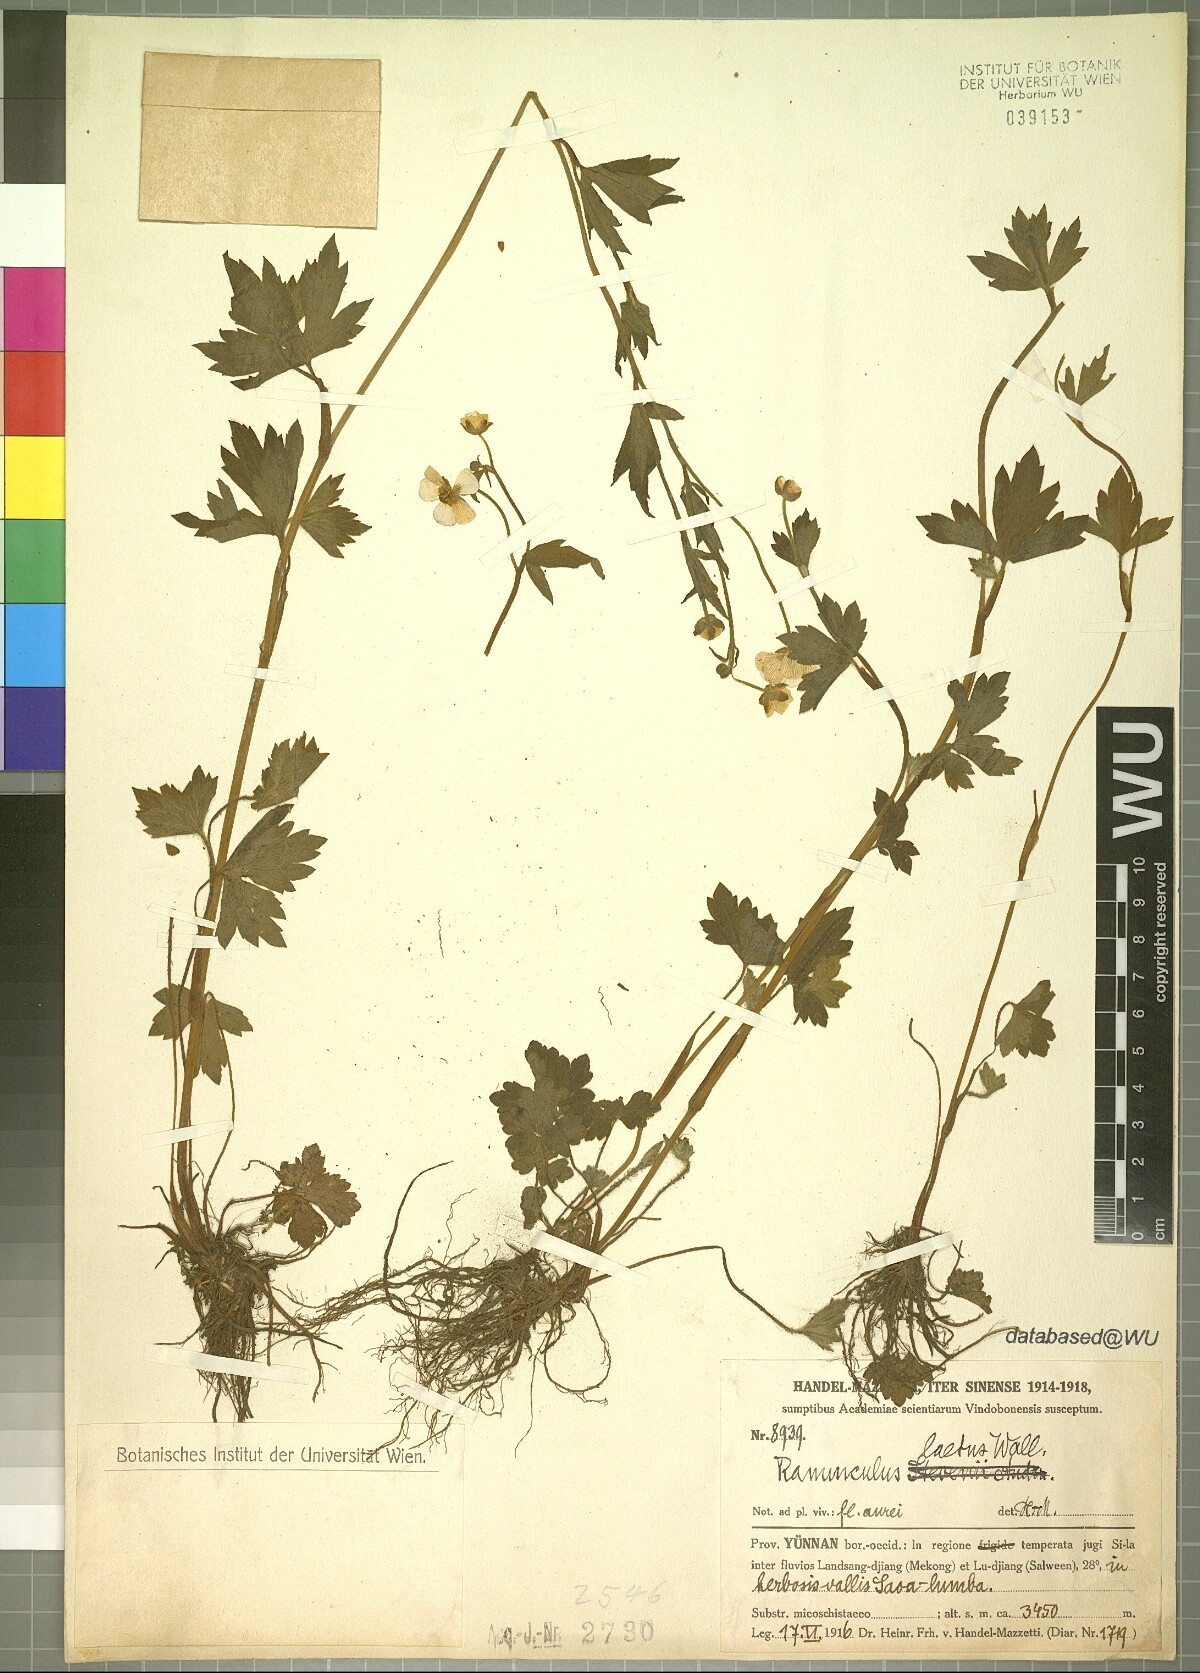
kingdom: Plantae
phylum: Tracheophyta
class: Magnoliopsida
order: Ranunculales
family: Ranunculaceae
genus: Ranunculus
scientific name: Ranunculus distans
